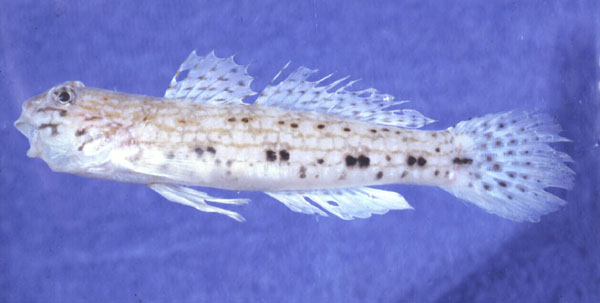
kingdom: Animalia
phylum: Chordata
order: Perciformes
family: Gobiidae
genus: Istigobius
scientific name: Istigobius decoratus
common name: Decorated goby
